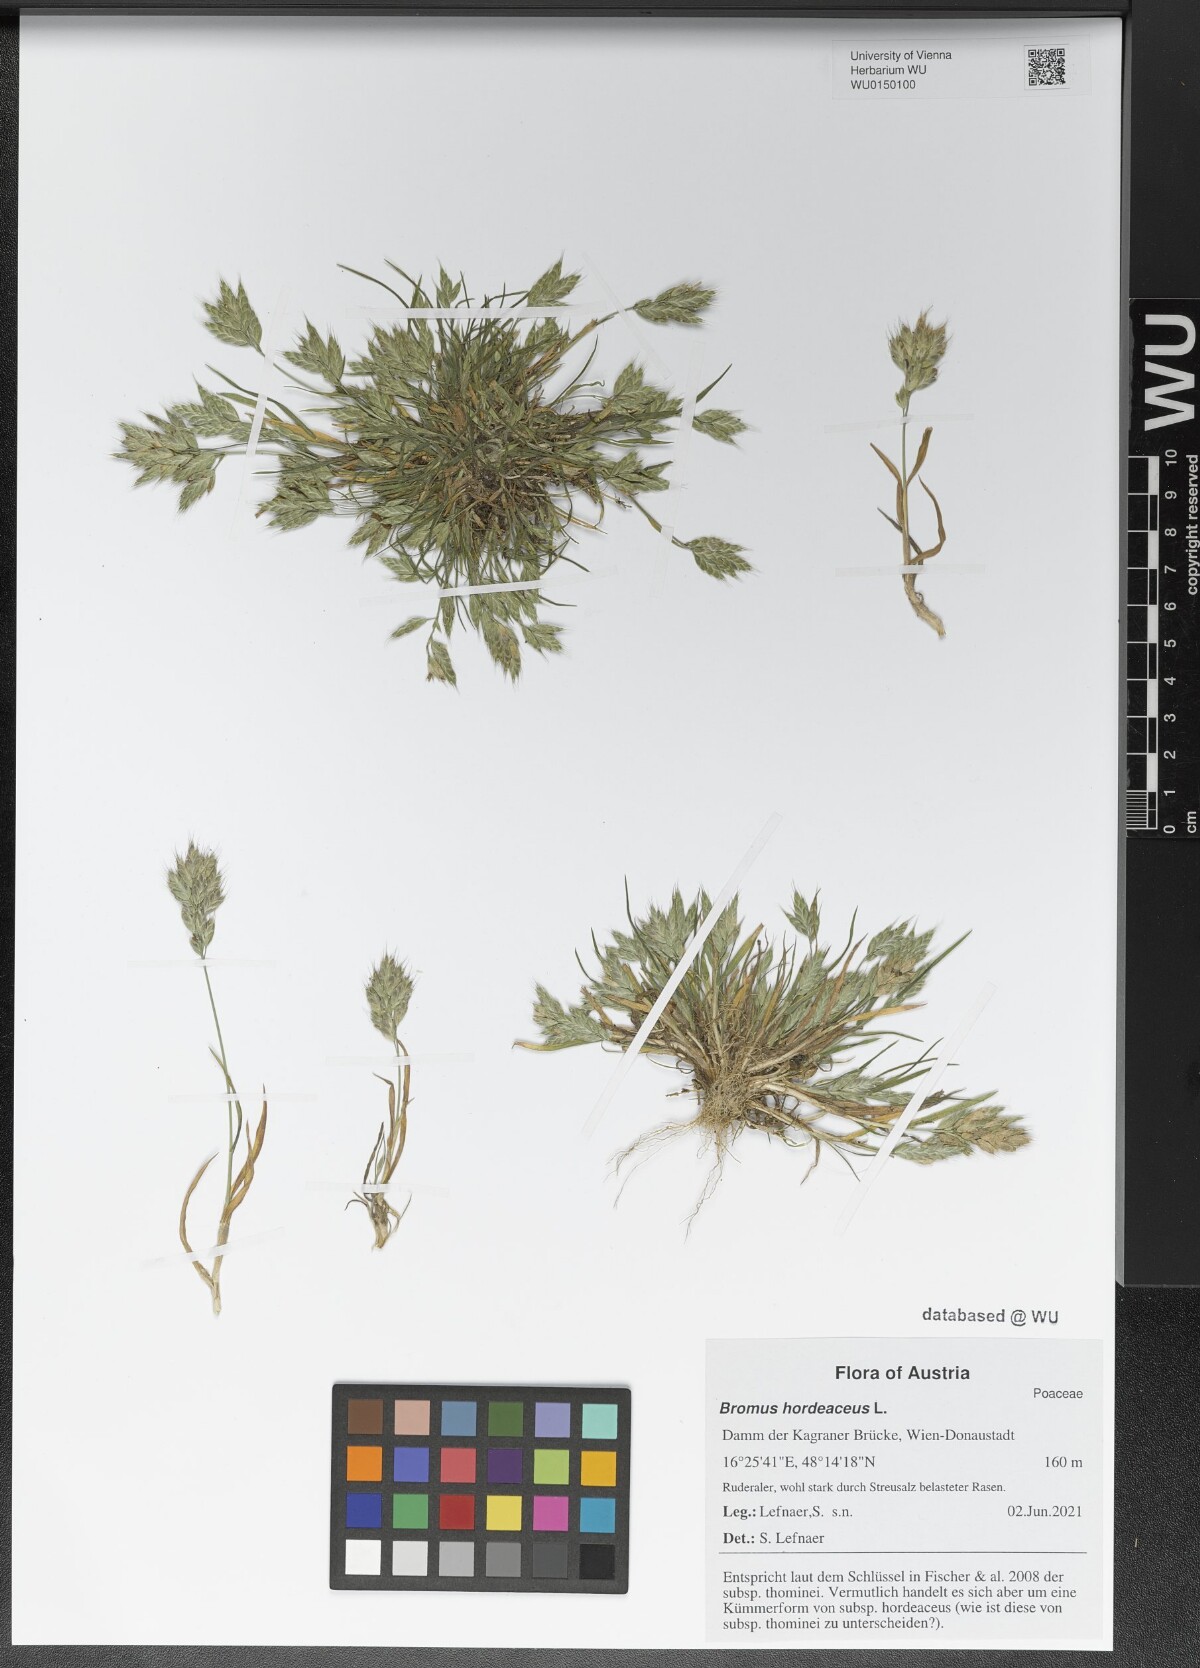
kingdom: Plantae
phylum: Tracheophyta
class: Liliopsida
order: Poales
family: Poaceae
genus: Bromus
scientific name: Bromus hordeaceus
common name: Soft brome
